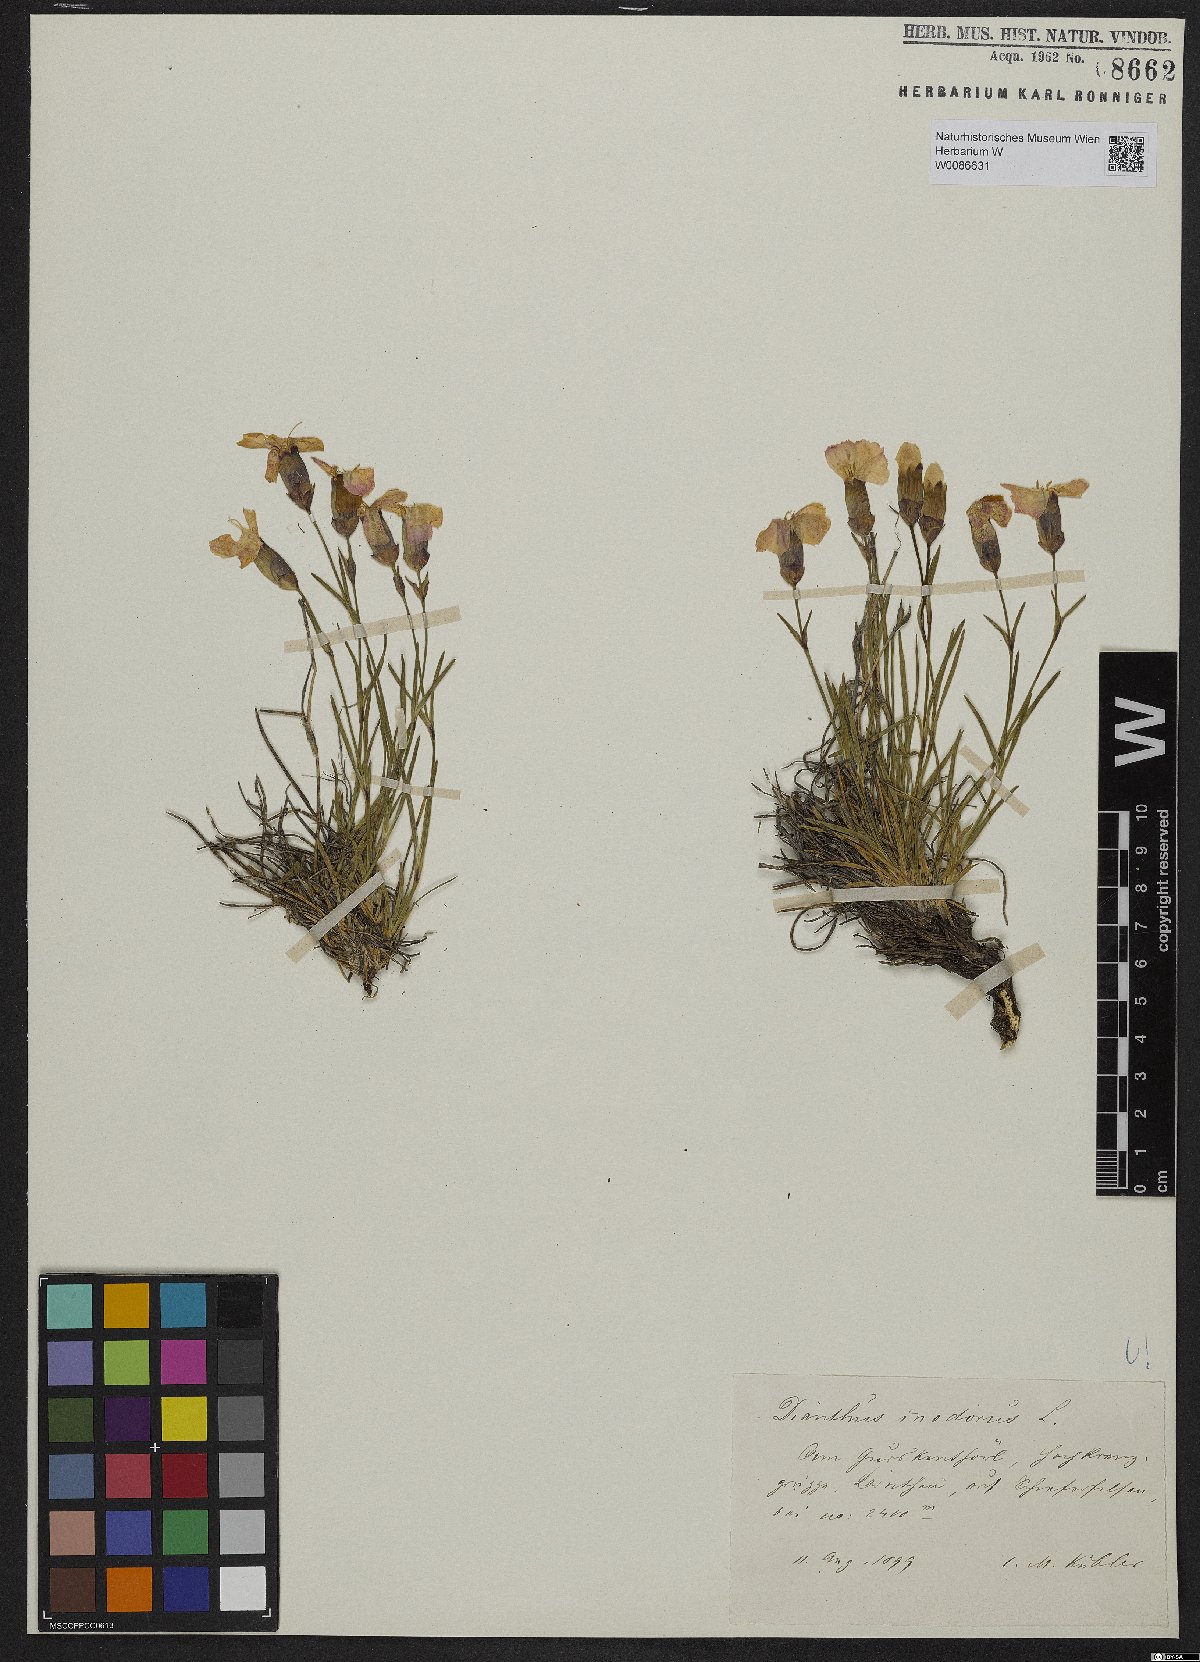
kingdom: Plantae
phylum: Tracheophyta
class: Magnoliopsida
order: Caryophyllales
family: Caryophyllaceae
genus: Dianthus
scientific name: Dianthus sylvestris
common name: Wood pink
